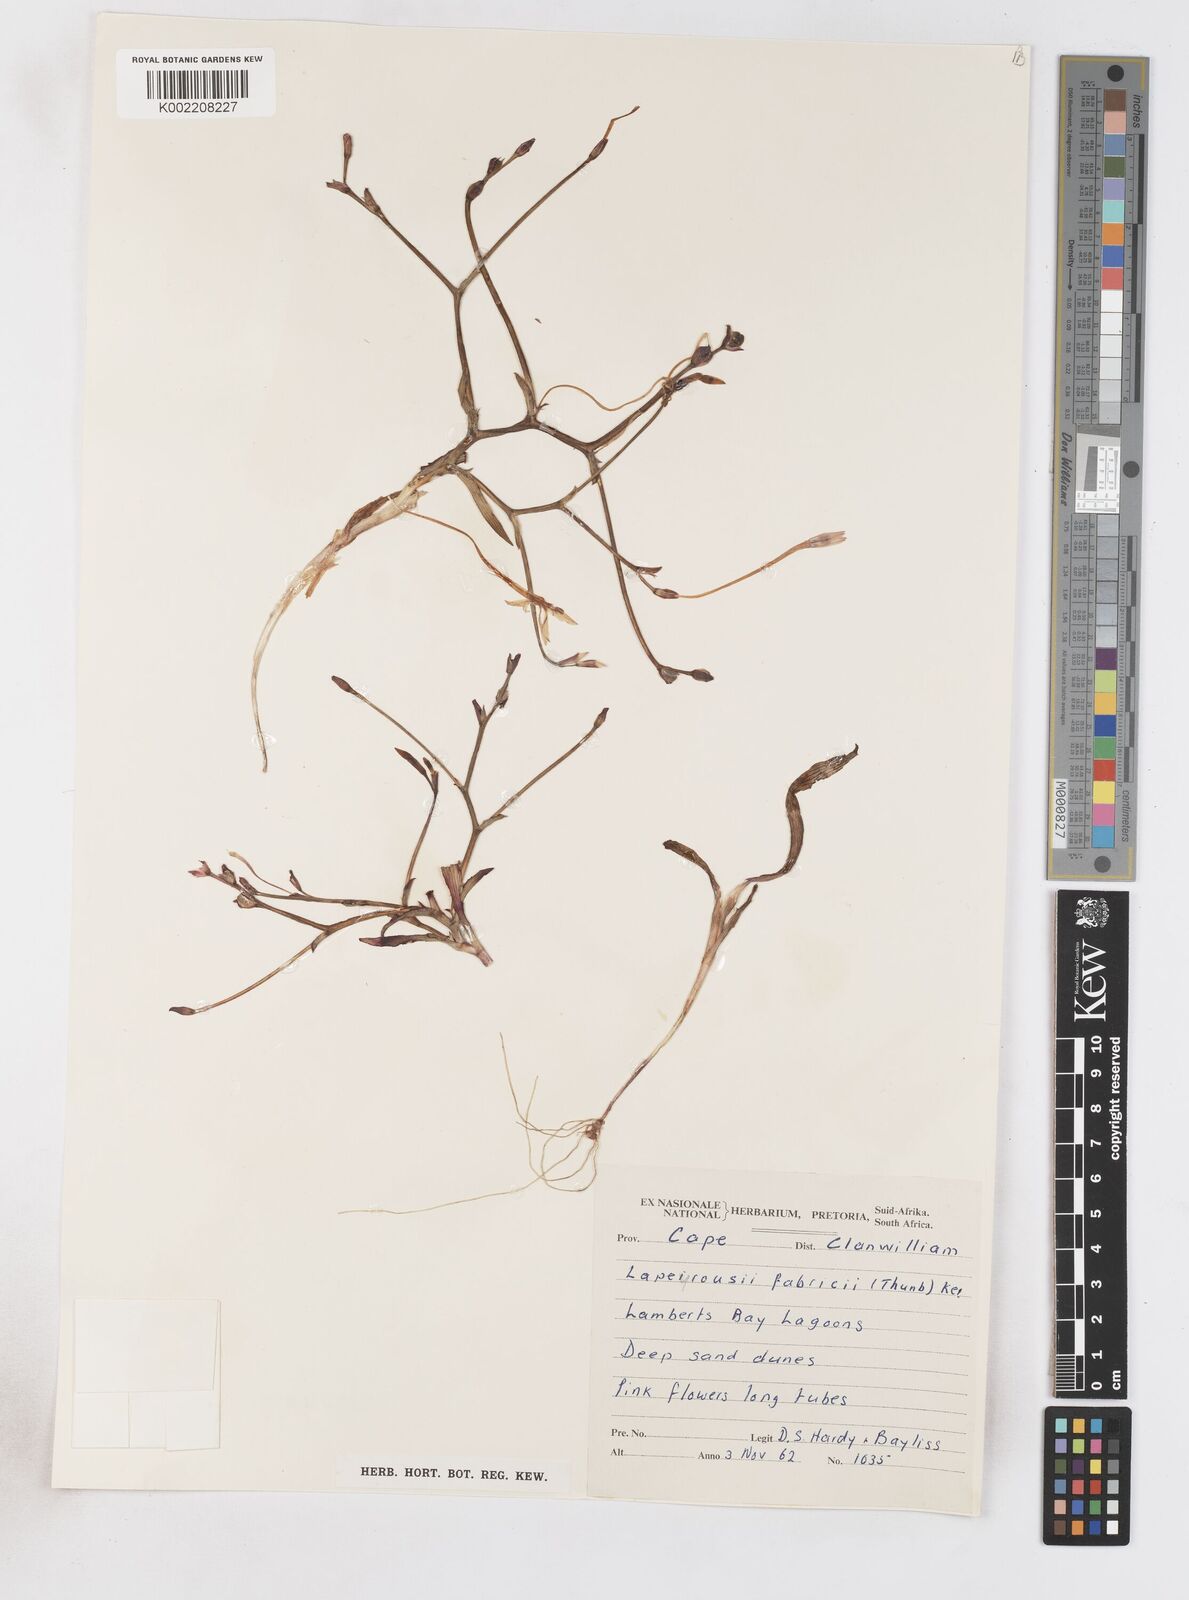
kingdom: Plantae
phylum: Tracheophyta
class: Liliopsida
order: Asparagales
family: Iridaceae
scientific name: Iridaceae
